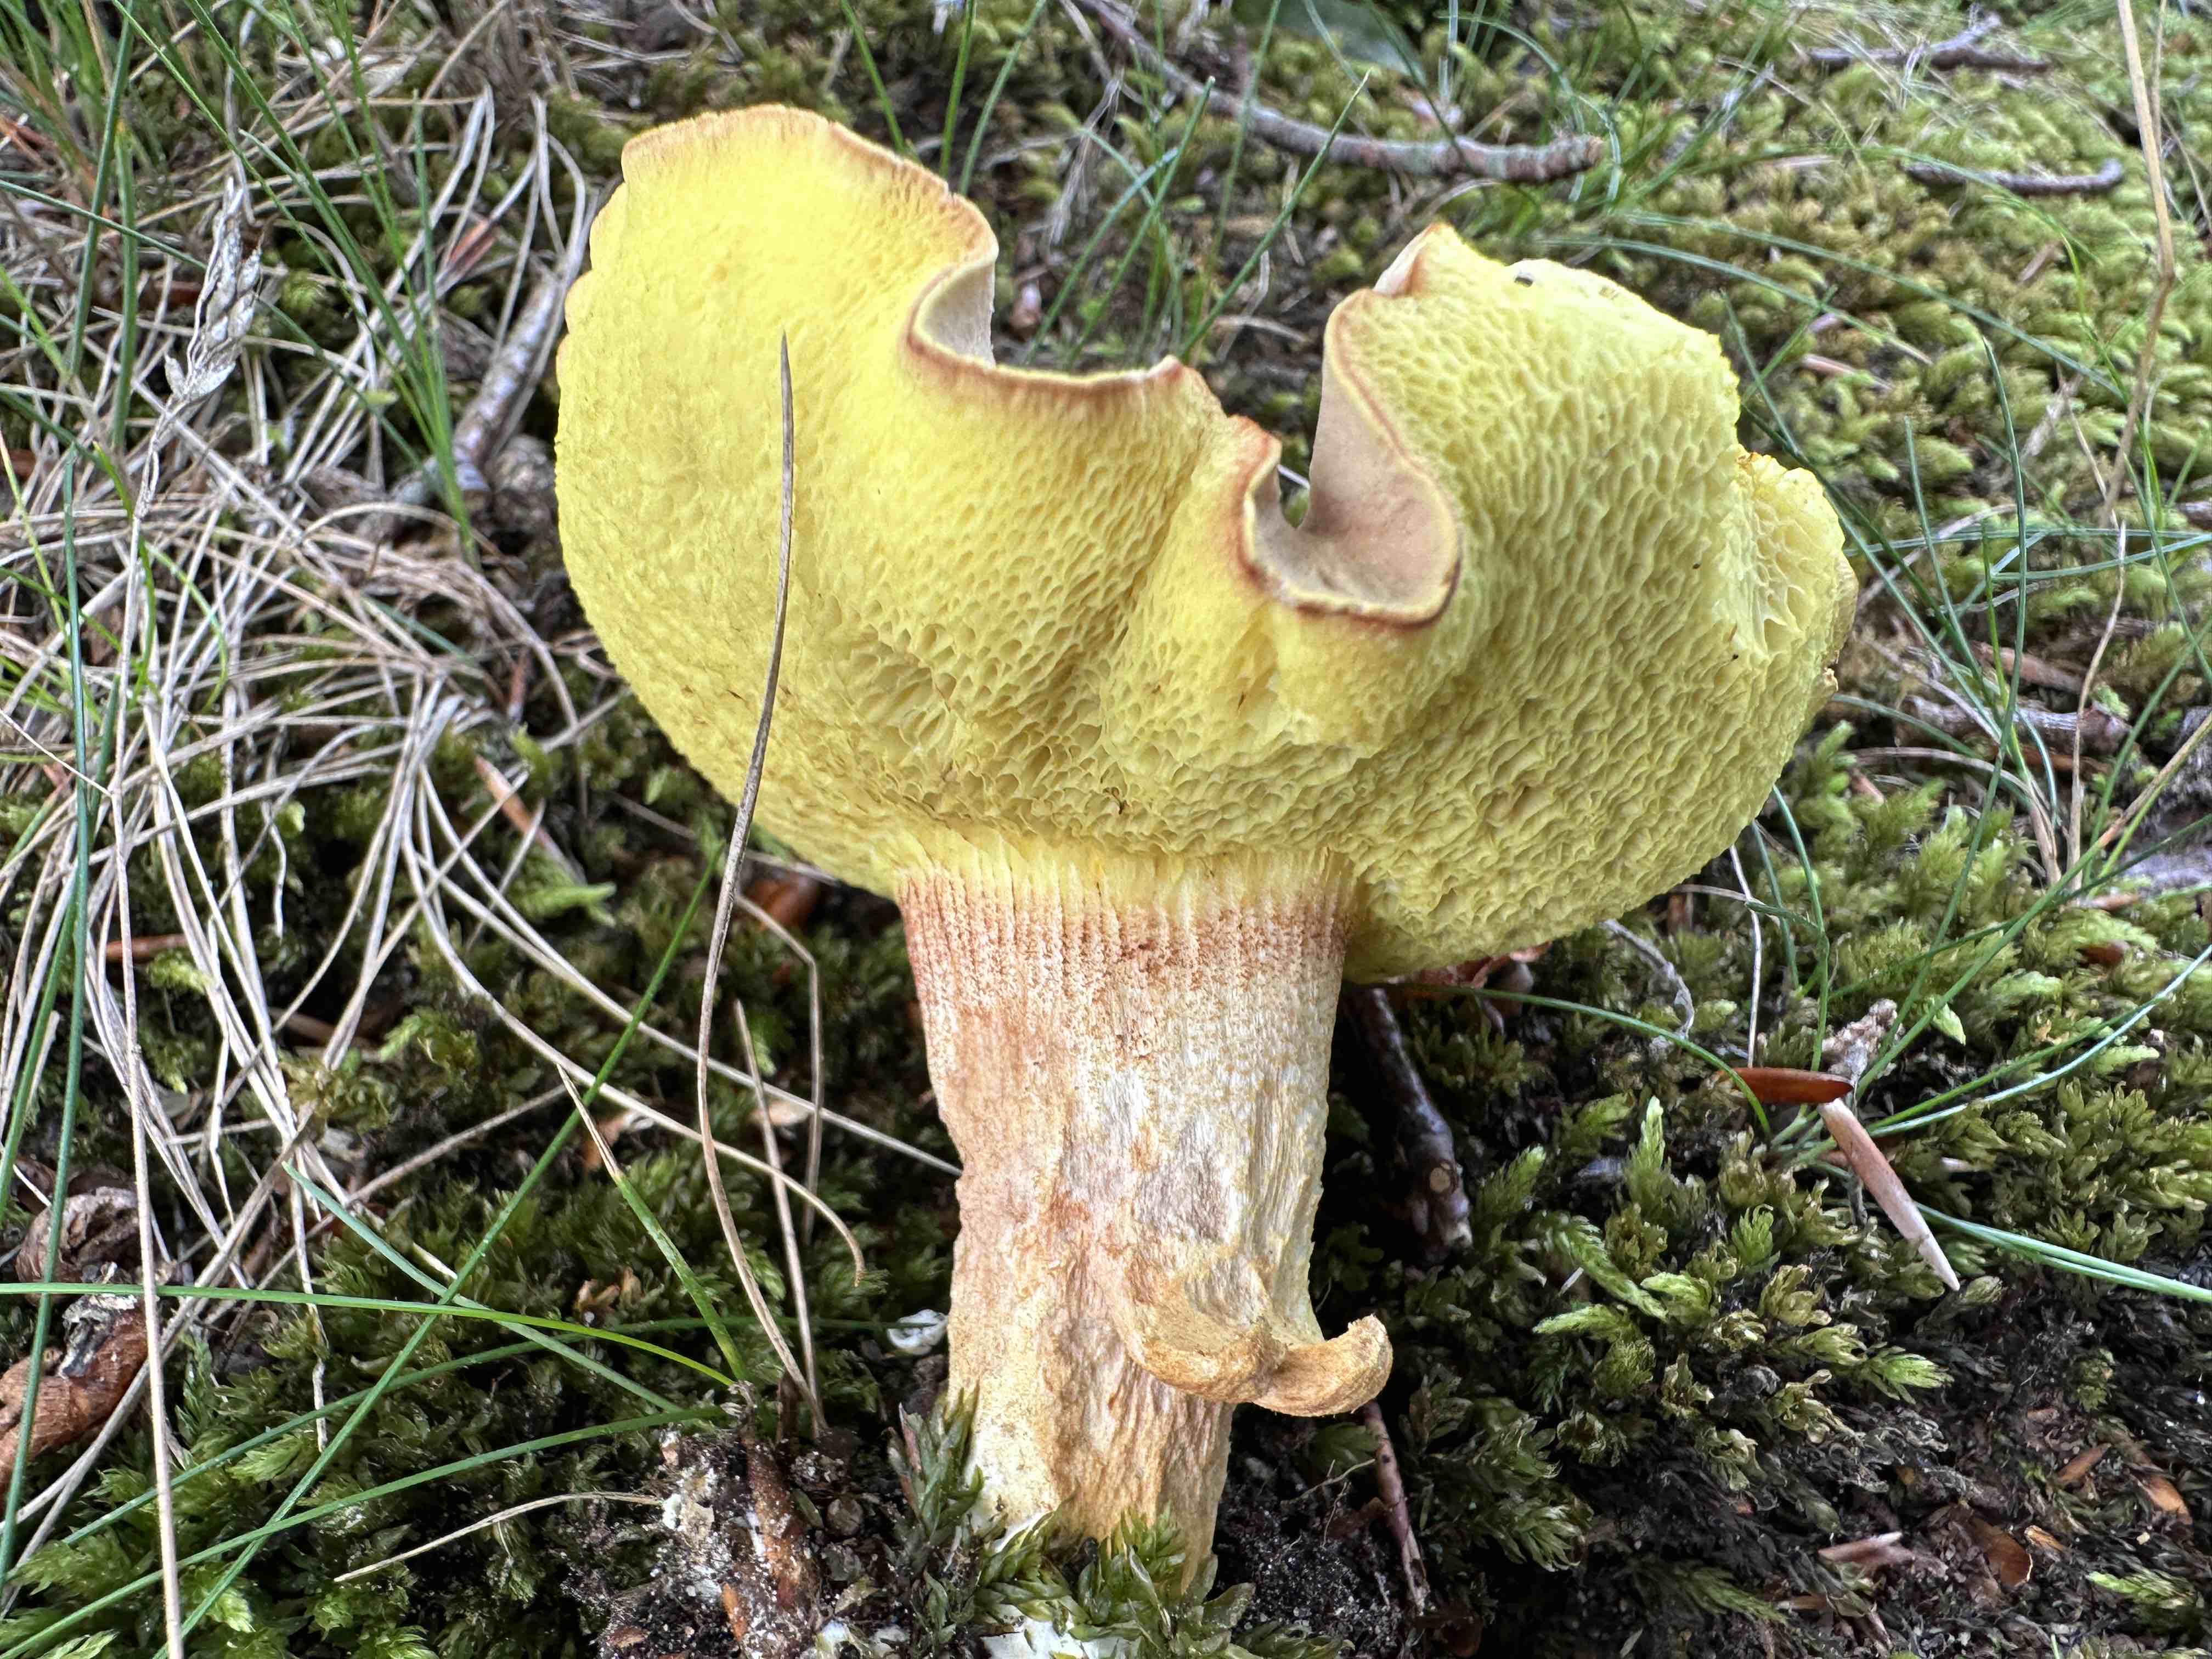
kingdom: Fungi
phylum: Basidiomycota
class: Agaricomycetes
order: Boletales
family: Boletaceae
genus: Xerocomus
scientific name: Xerocomus ferrugineus
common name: vaskeskinds-rørhat
